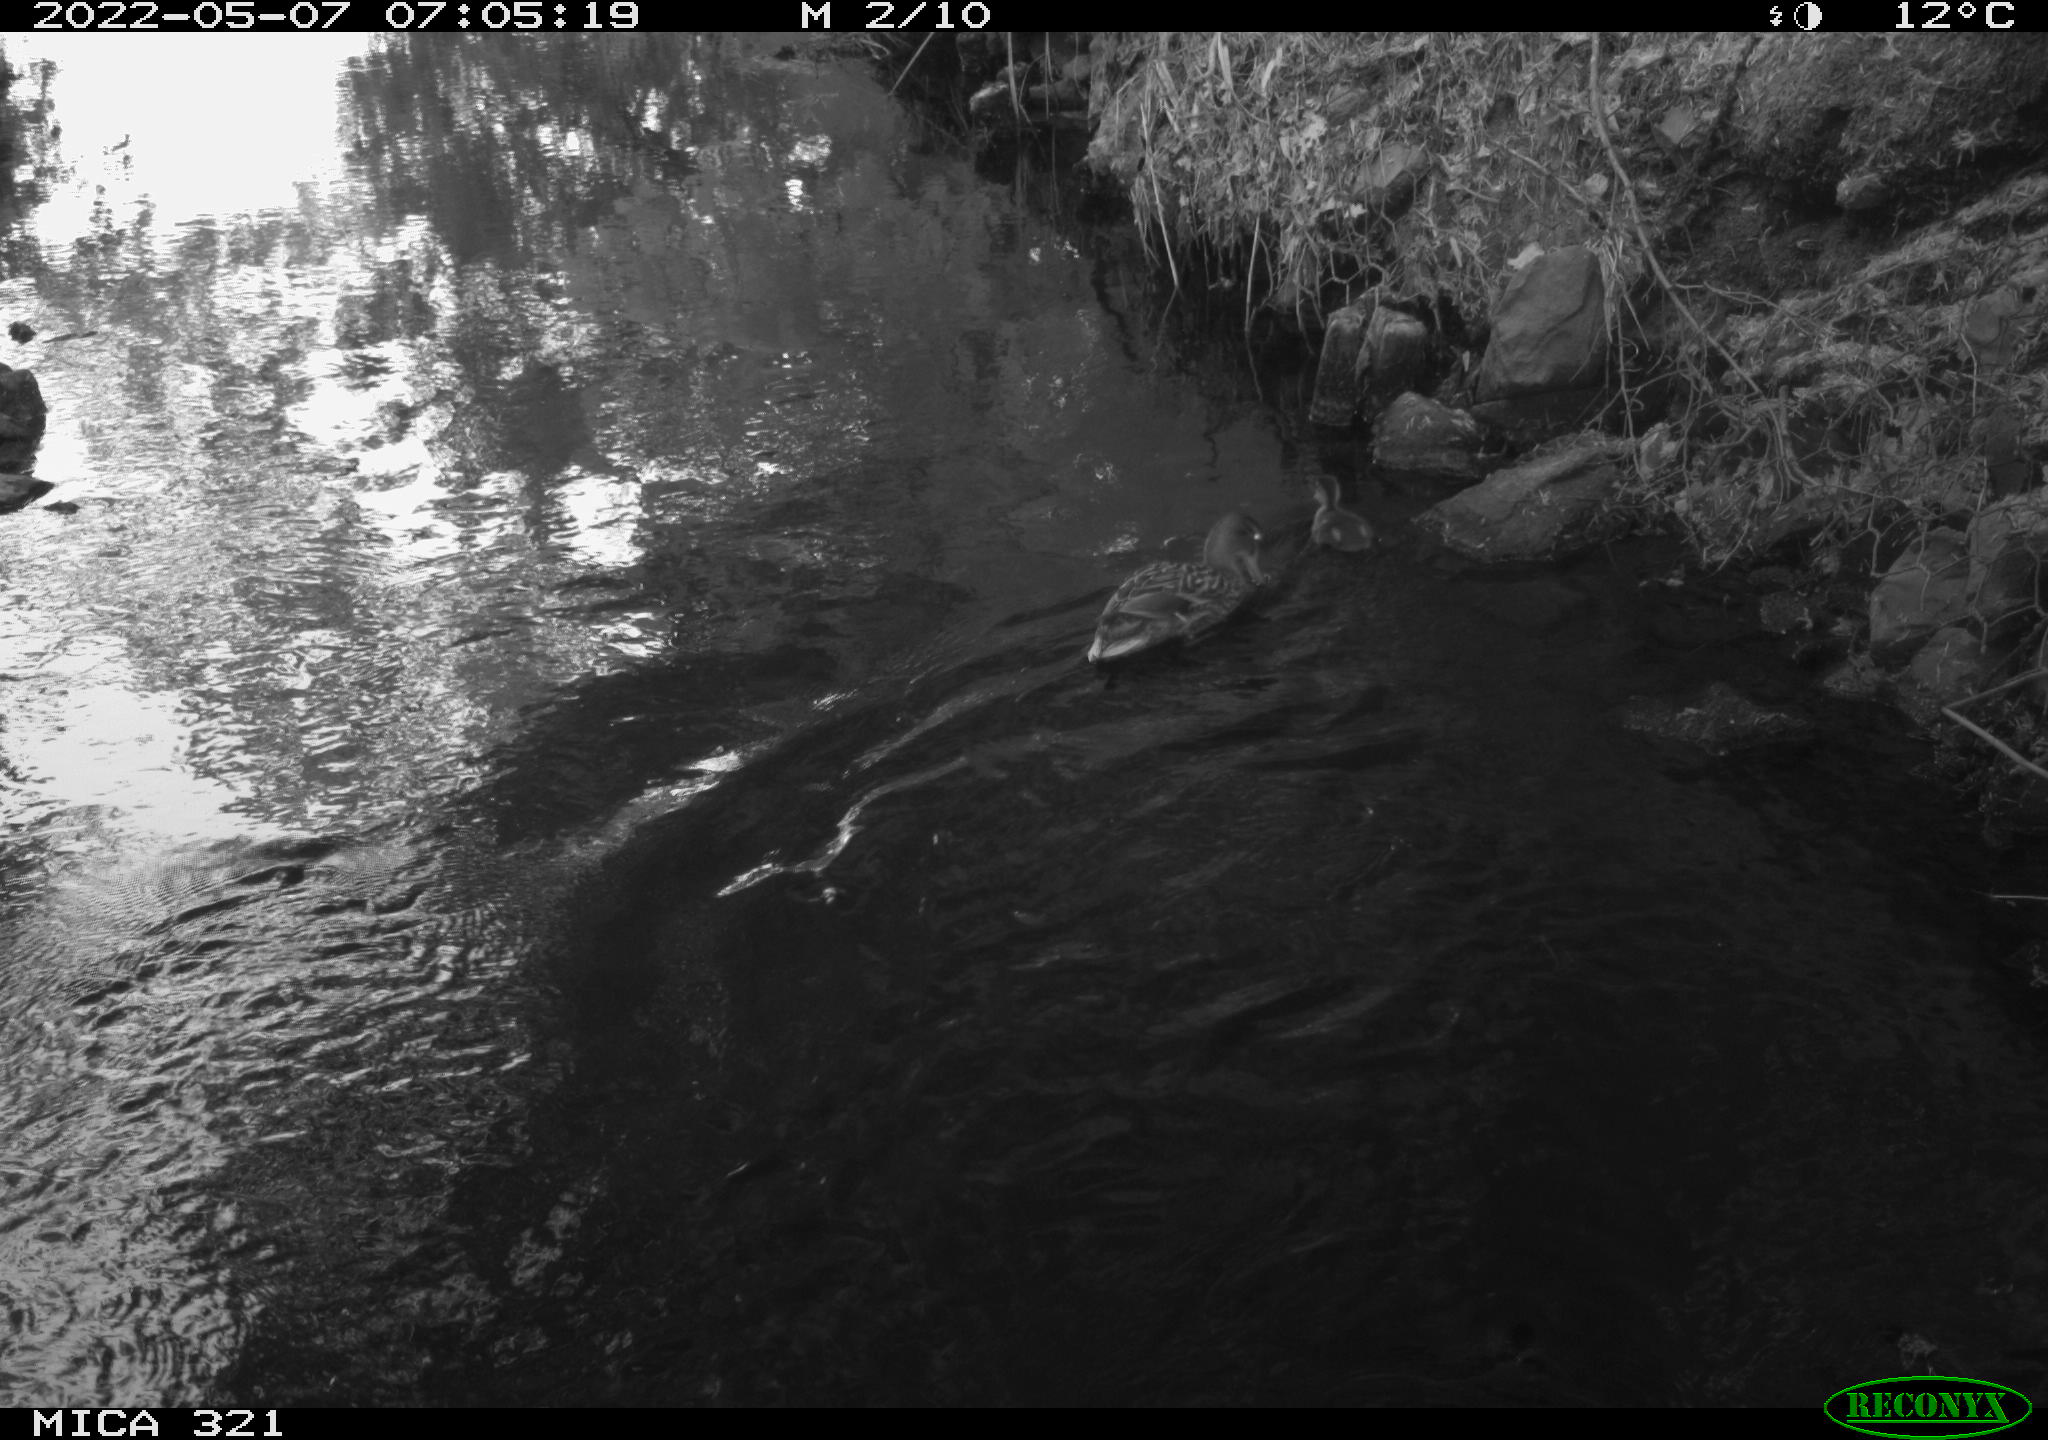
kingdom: Animalia
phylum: Chordata
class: Aves
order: Anseriformes
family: Anatidae
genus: Anas
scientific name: Anas platyrhynchos
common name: Mallard
